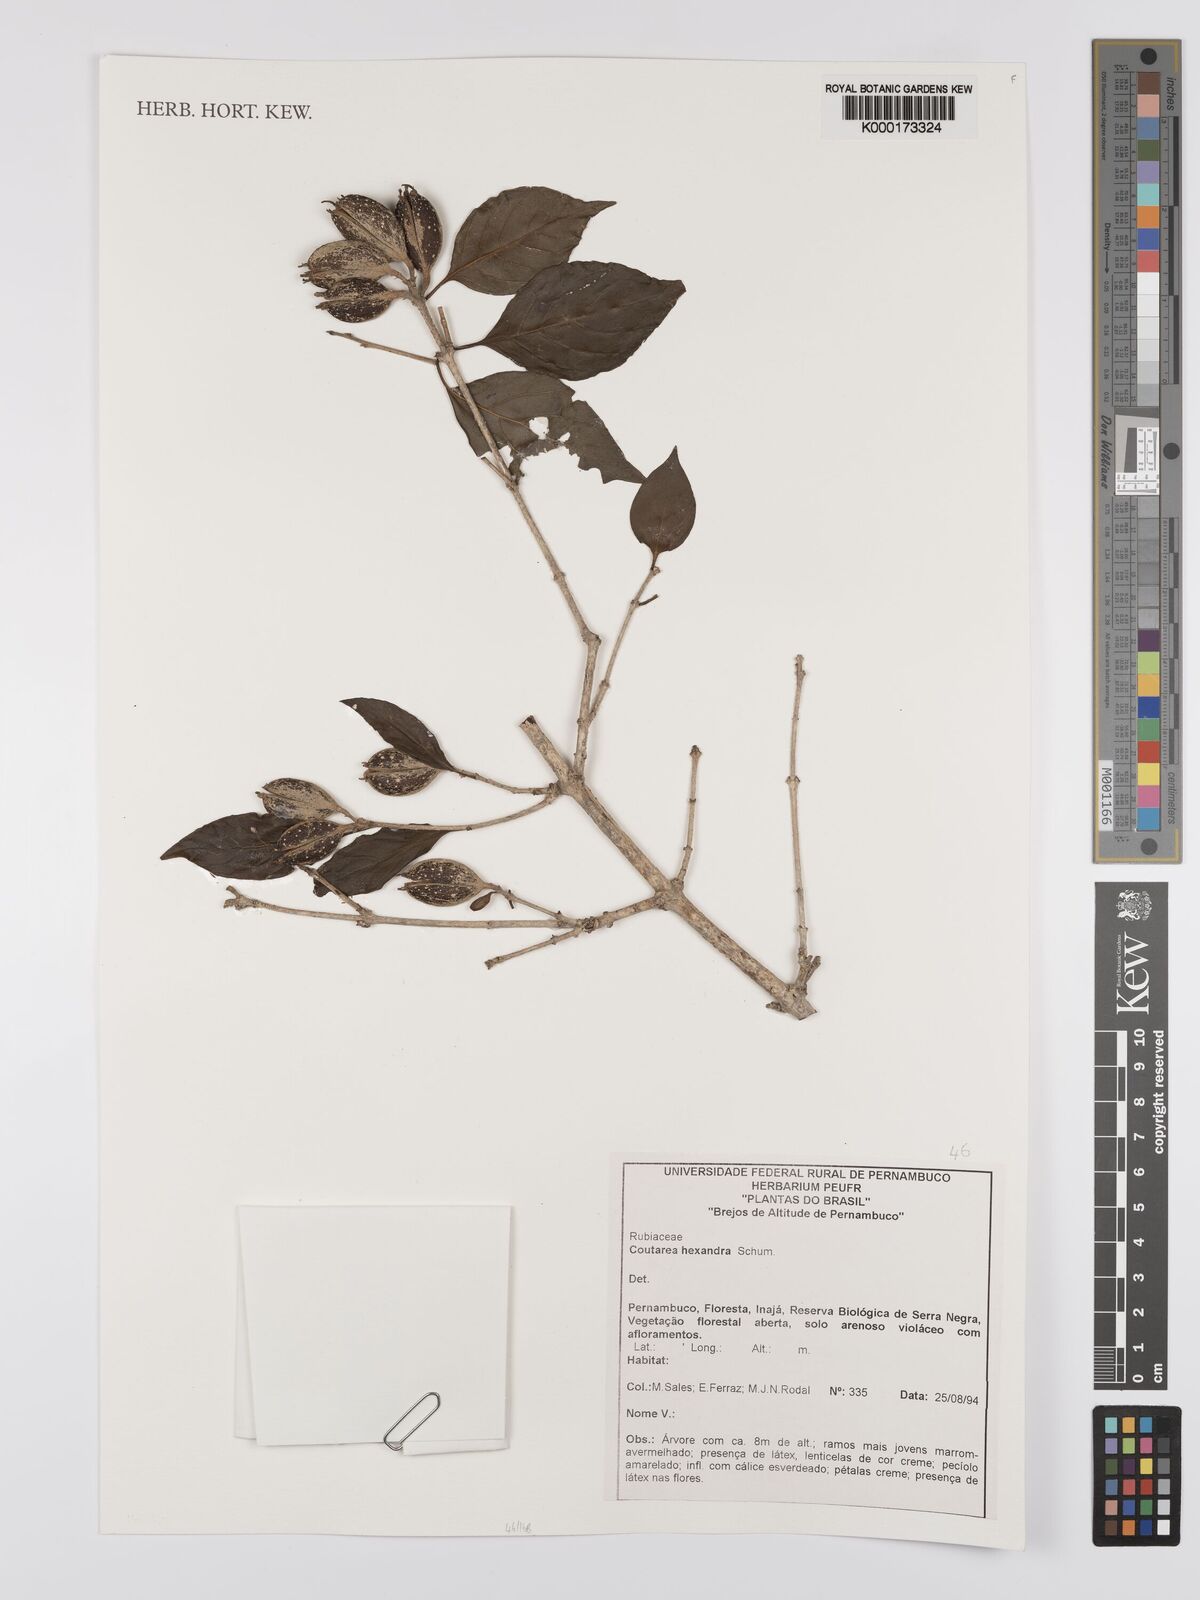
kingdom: Plantae
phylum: Tracheophyta
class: Magnoliopsida
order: Gentianales
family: Rubiaceae
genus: Coutarea
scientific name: Coutarea hexandra
